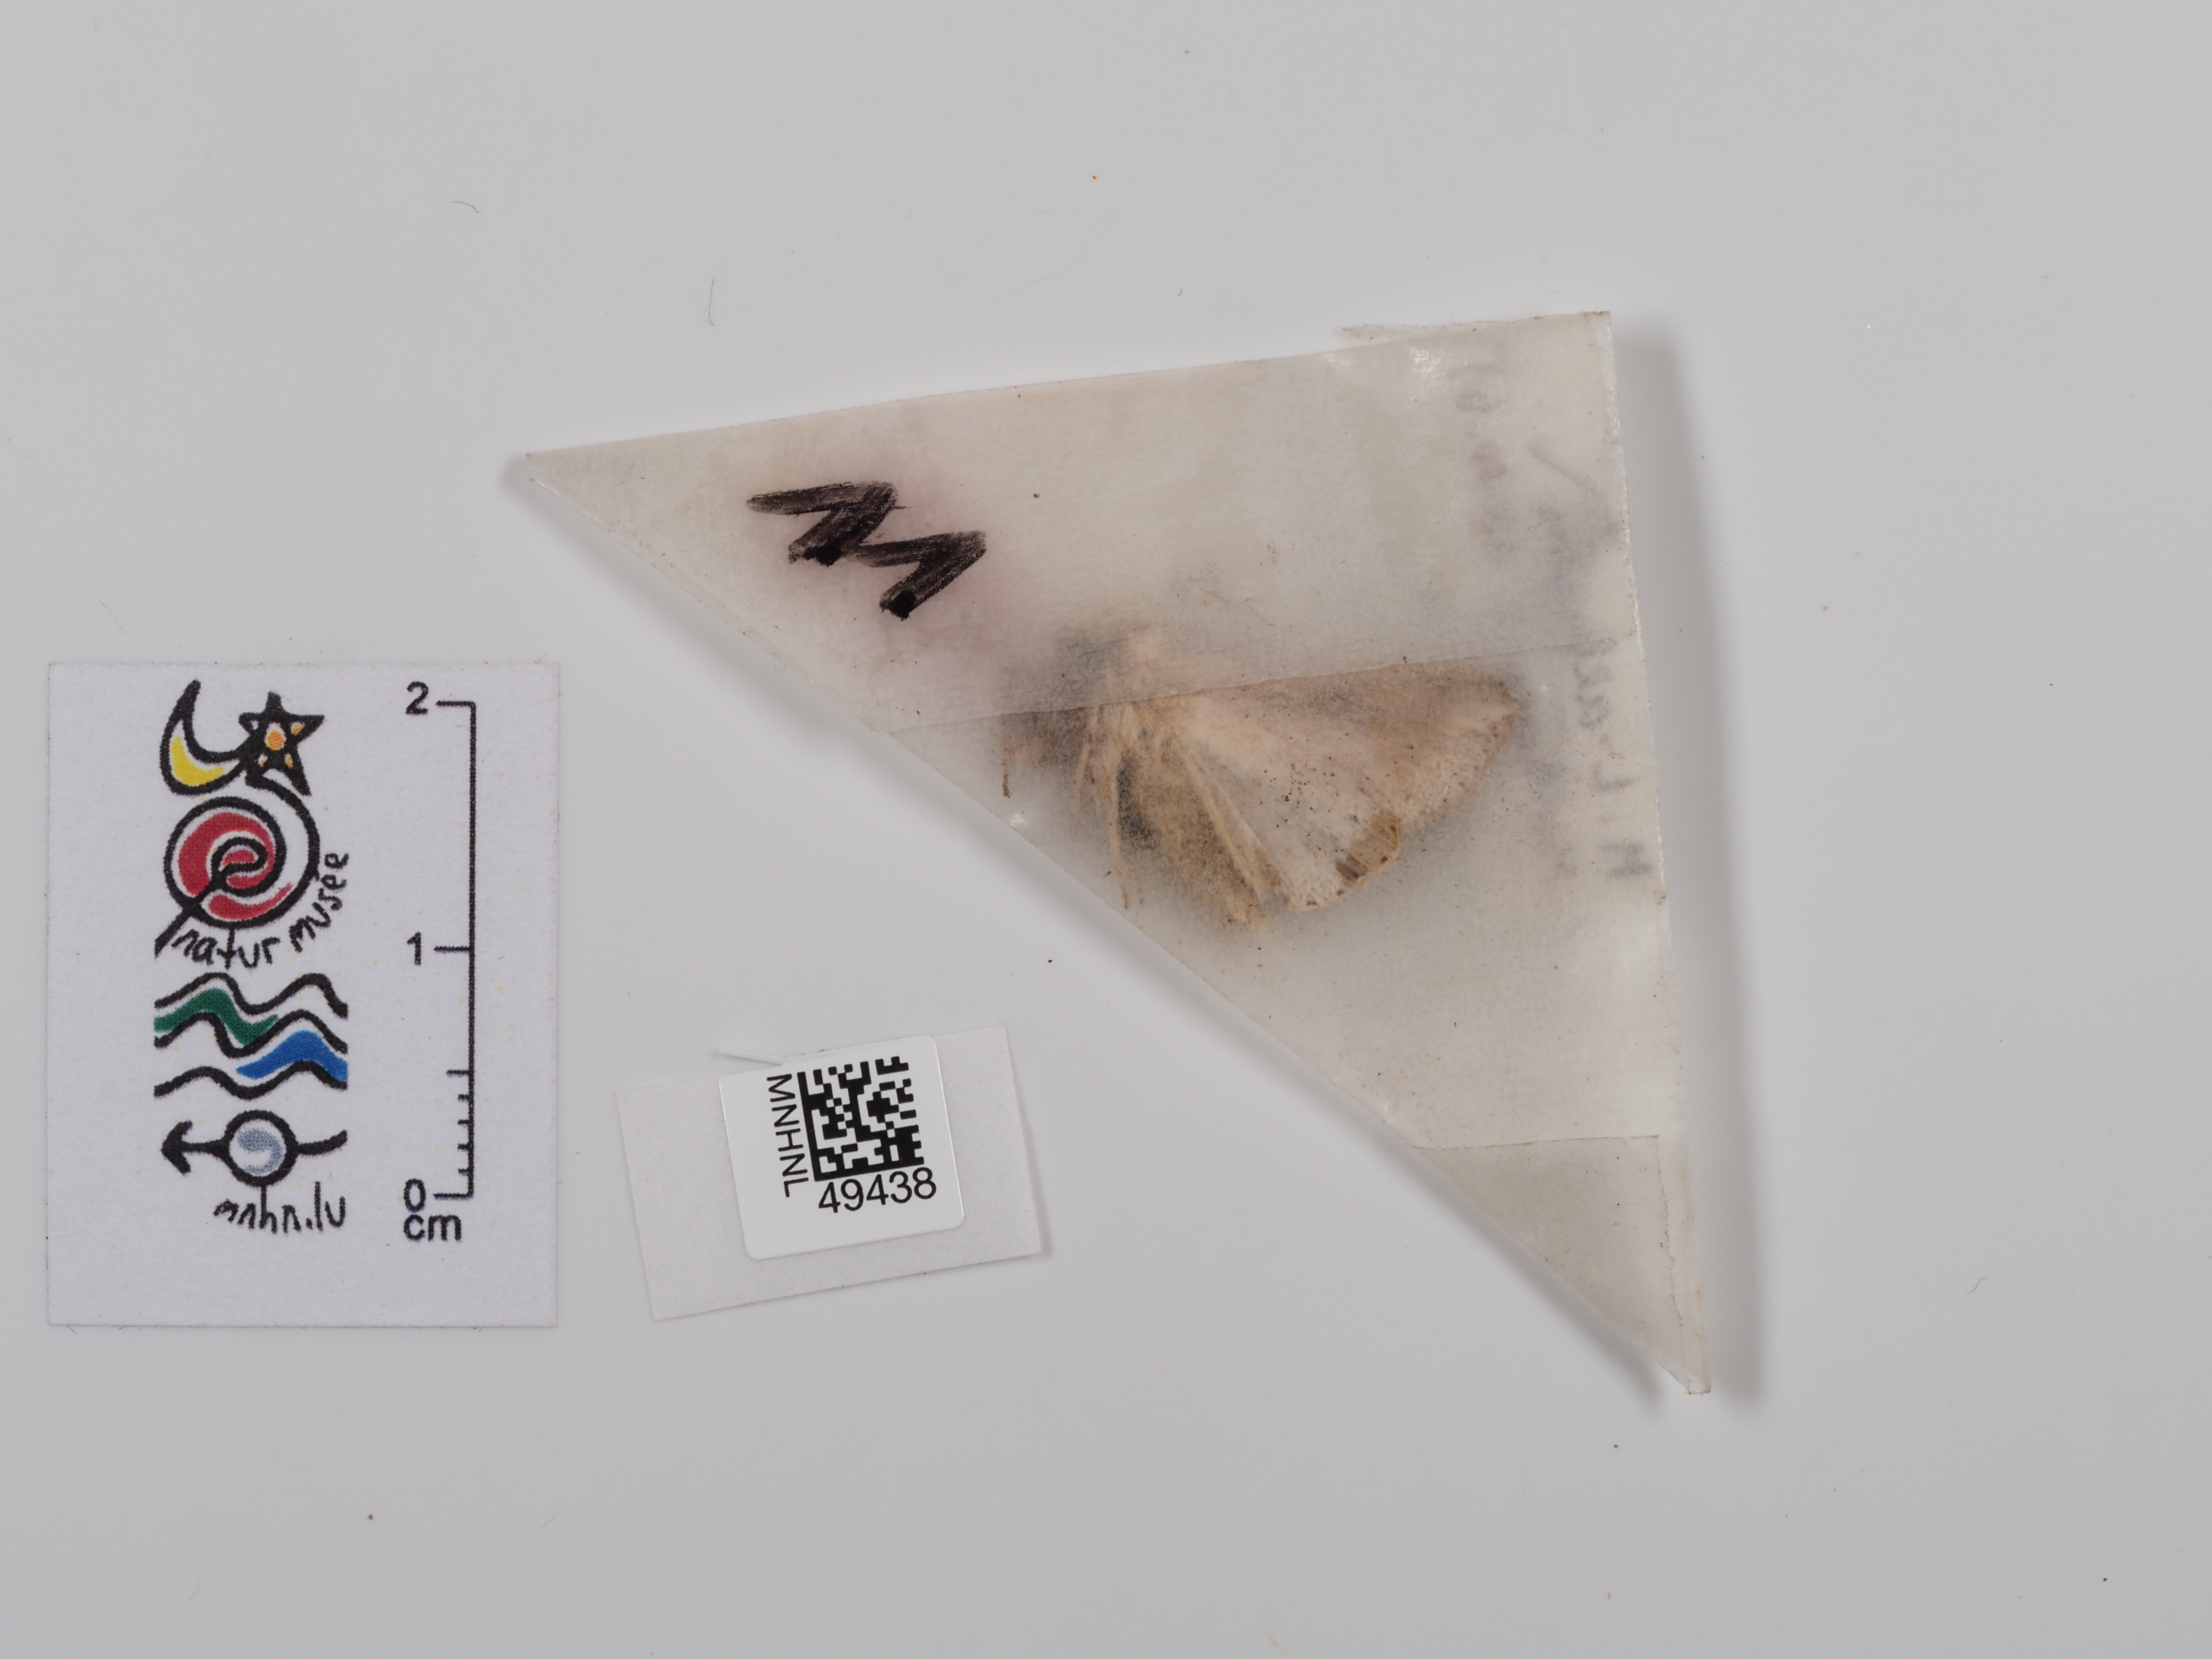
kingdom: Animalia
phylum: Arthropoda
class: Insecta
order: Lepidoptera
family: Noctuidae
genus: Mythimna
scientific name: Mythimna l-album
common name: L-album wainscot
